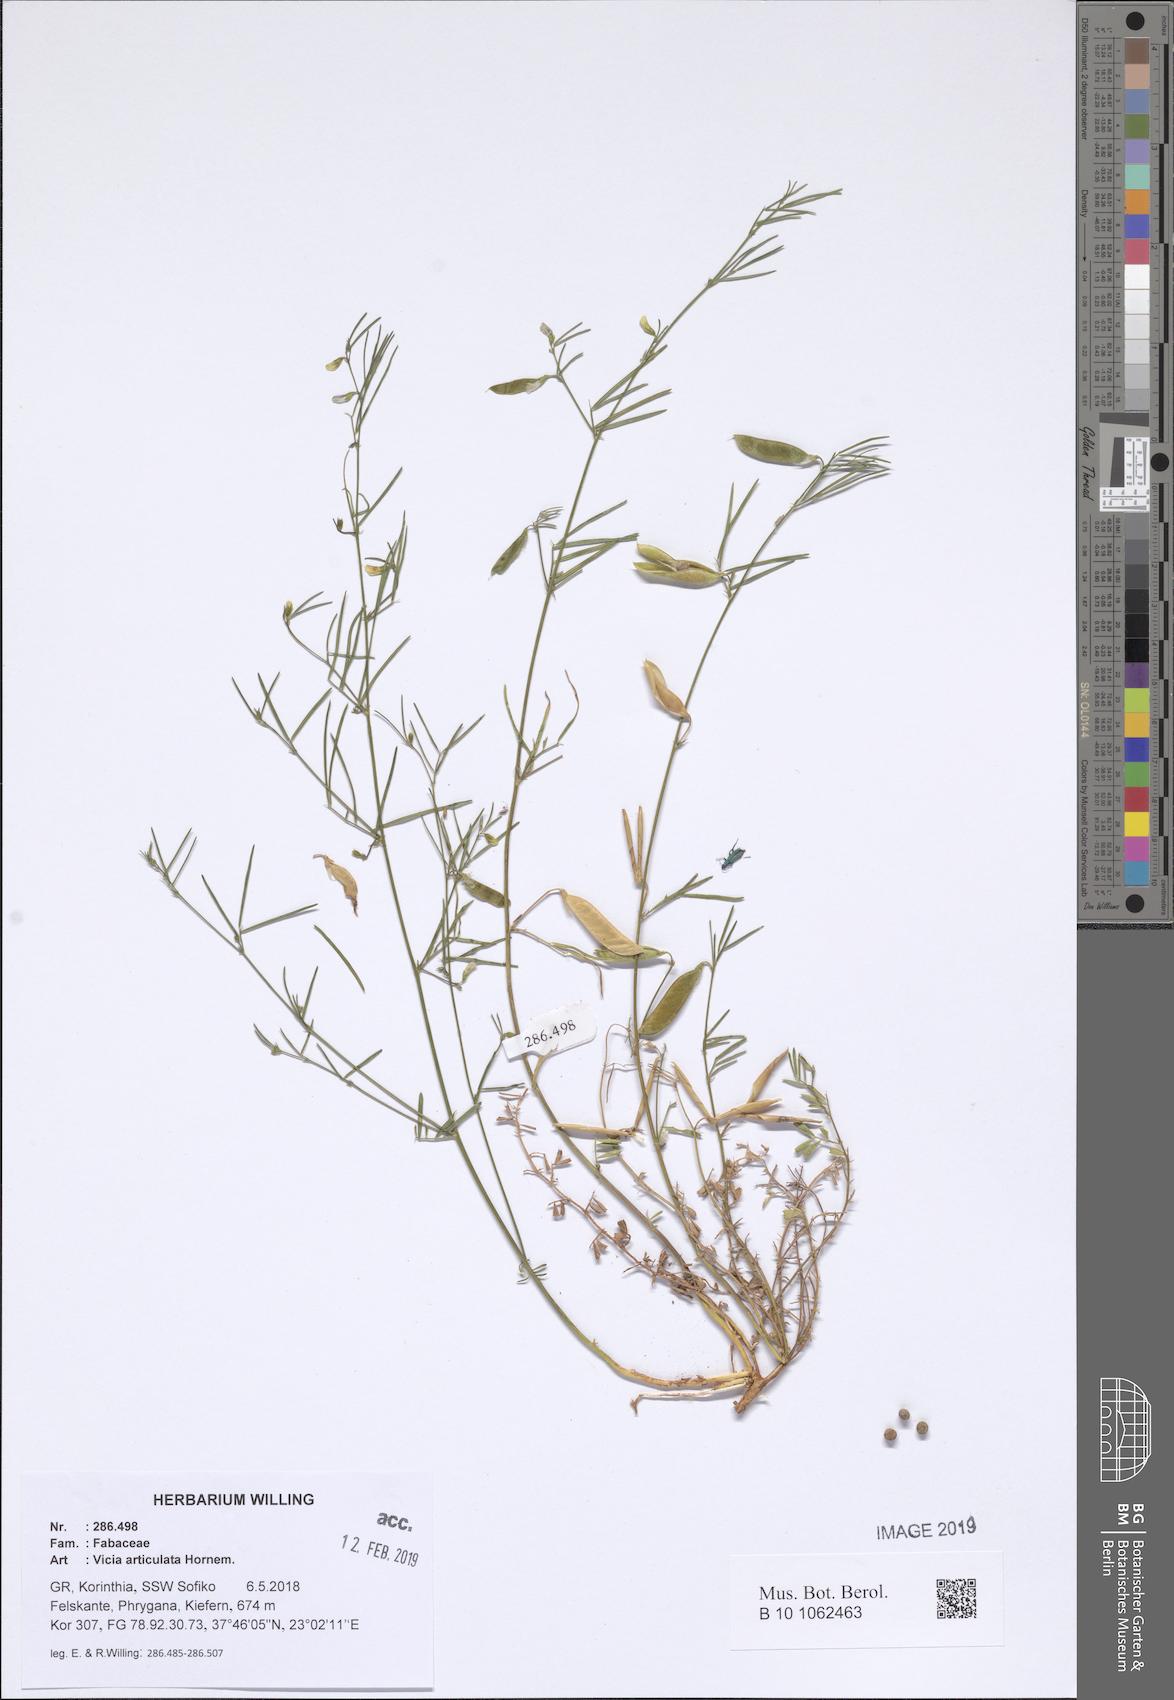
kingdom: Plantae
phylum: Tracheophyta
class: Magnoliopsida
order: Fabales
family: Fabaceae
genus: Vicia
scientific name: Vicia articulata
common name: Monantha vetch
